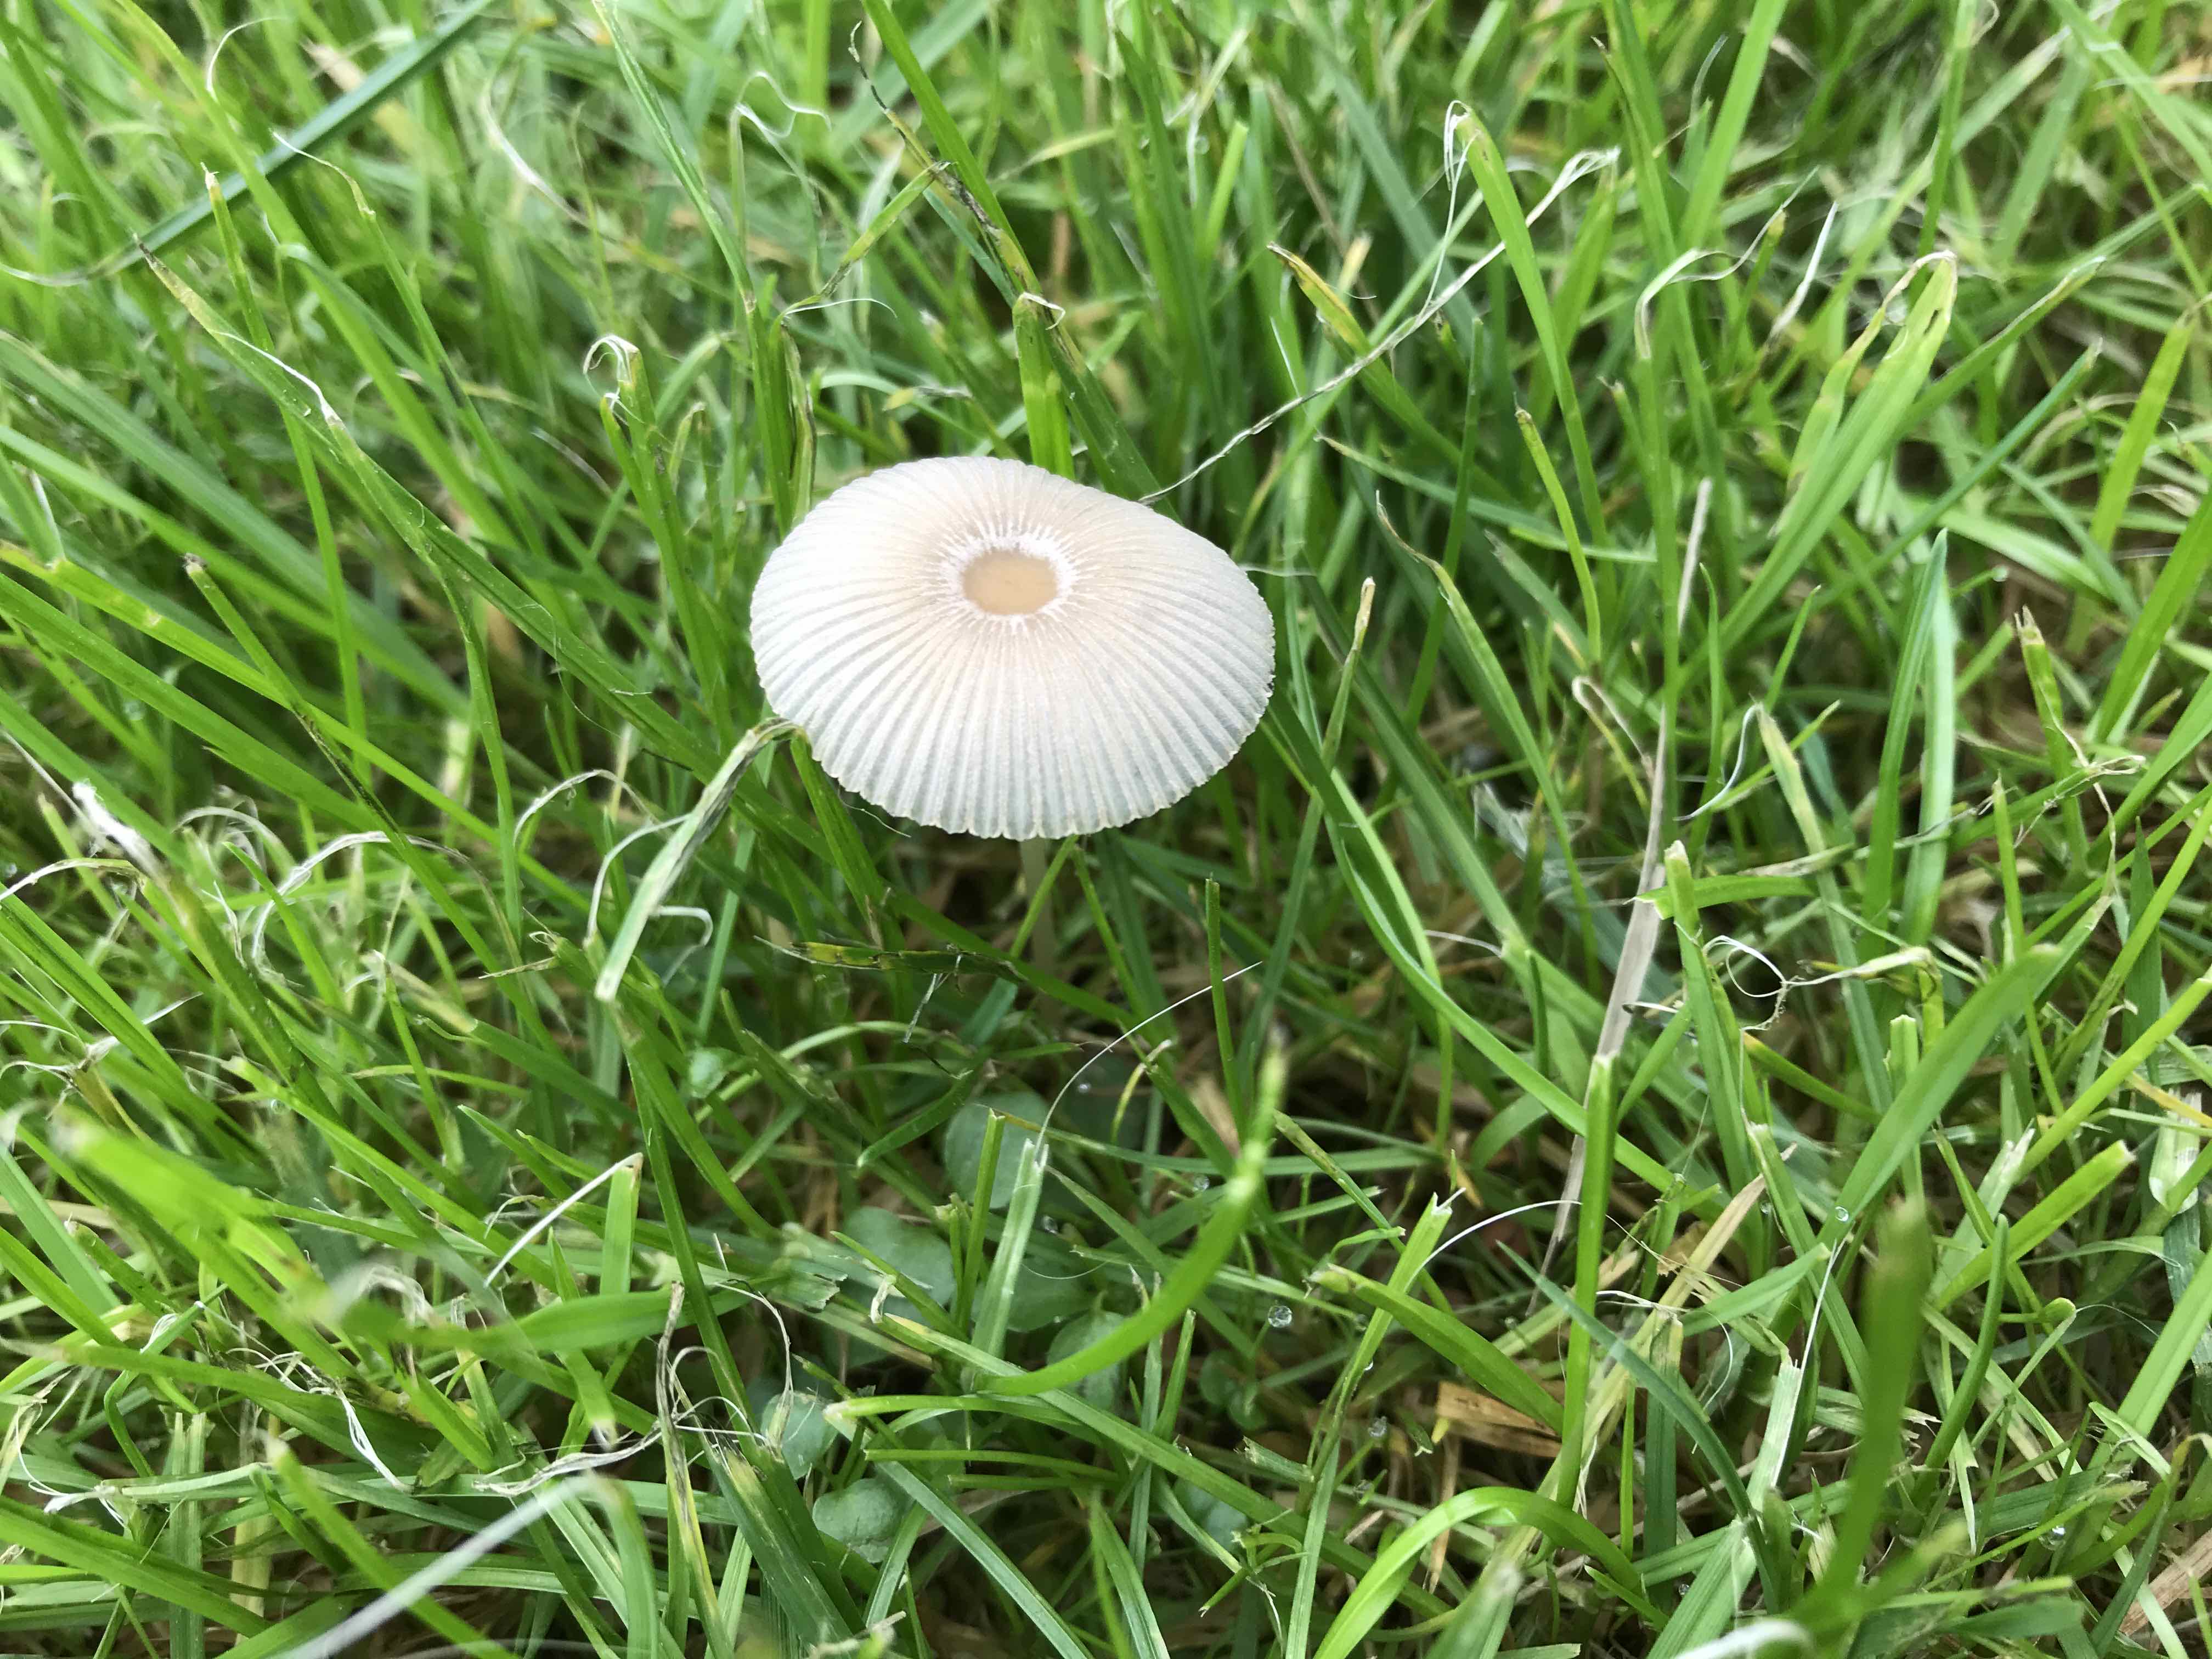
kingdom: Fungi
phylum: Basidiomycota
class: Agaricomycetes
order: Agaricales
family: Psathyrellaceae
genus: Parasola
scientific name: Parasola
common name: hjulhat
